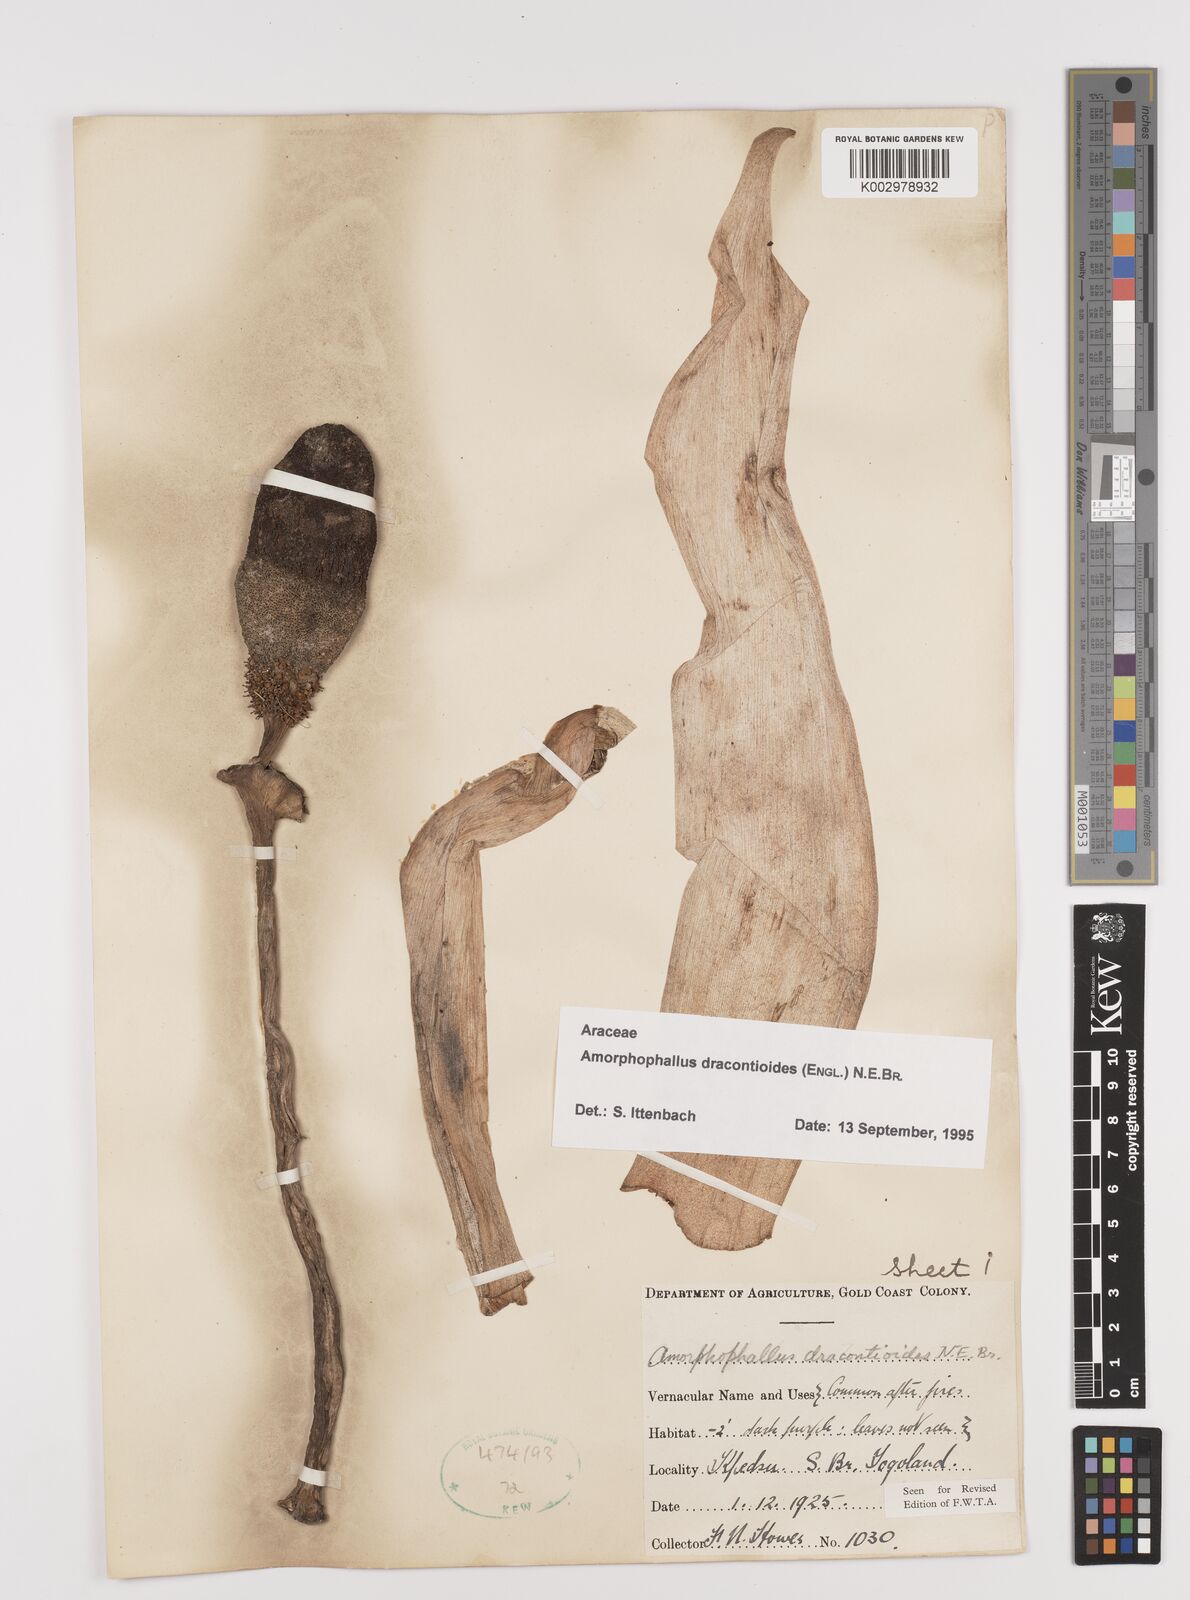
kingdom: Plantae
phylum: Tracheophyta
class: Liliopsida
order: Alismatales
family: Araceae
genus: Amorphophallus
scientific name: Amorphophallus dracontioides
